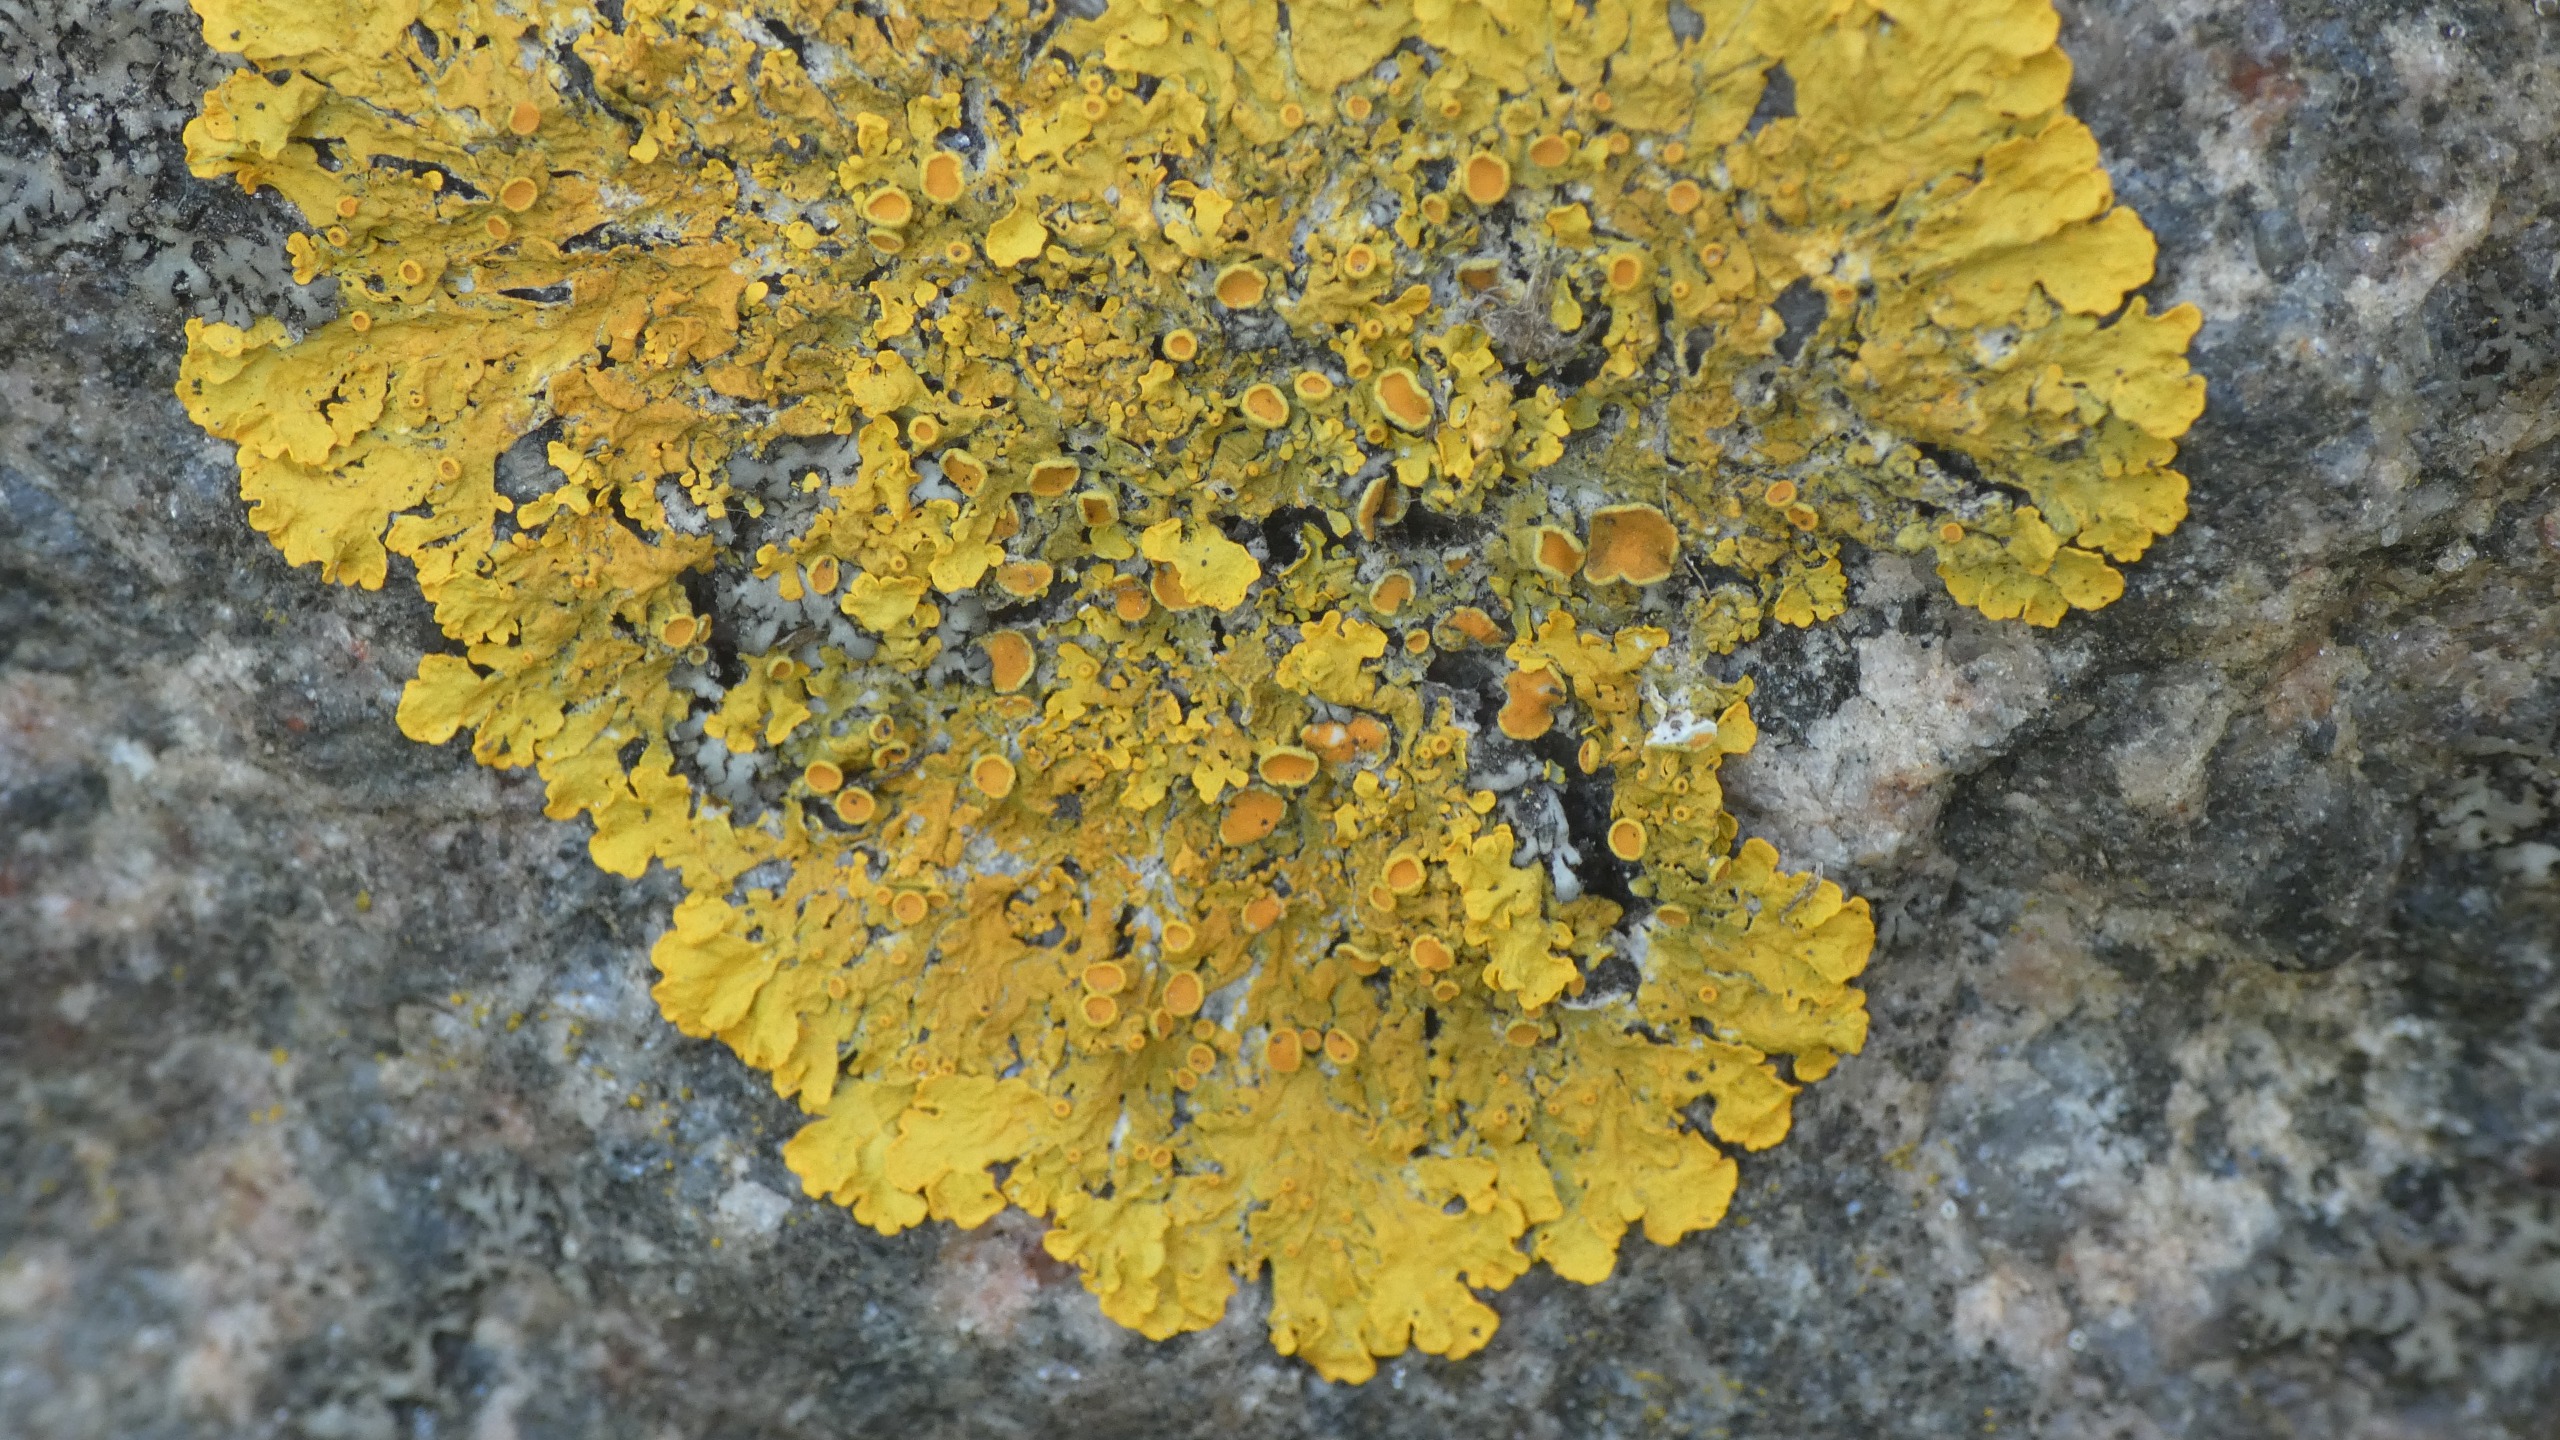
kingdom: Fungi
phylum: Ascomycota
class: Lecanoromycetes
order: Teloschistales
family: Teloschistaceae
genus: Xanthoria
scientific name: Xanthoria parietina
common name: Almindelig væggelav
